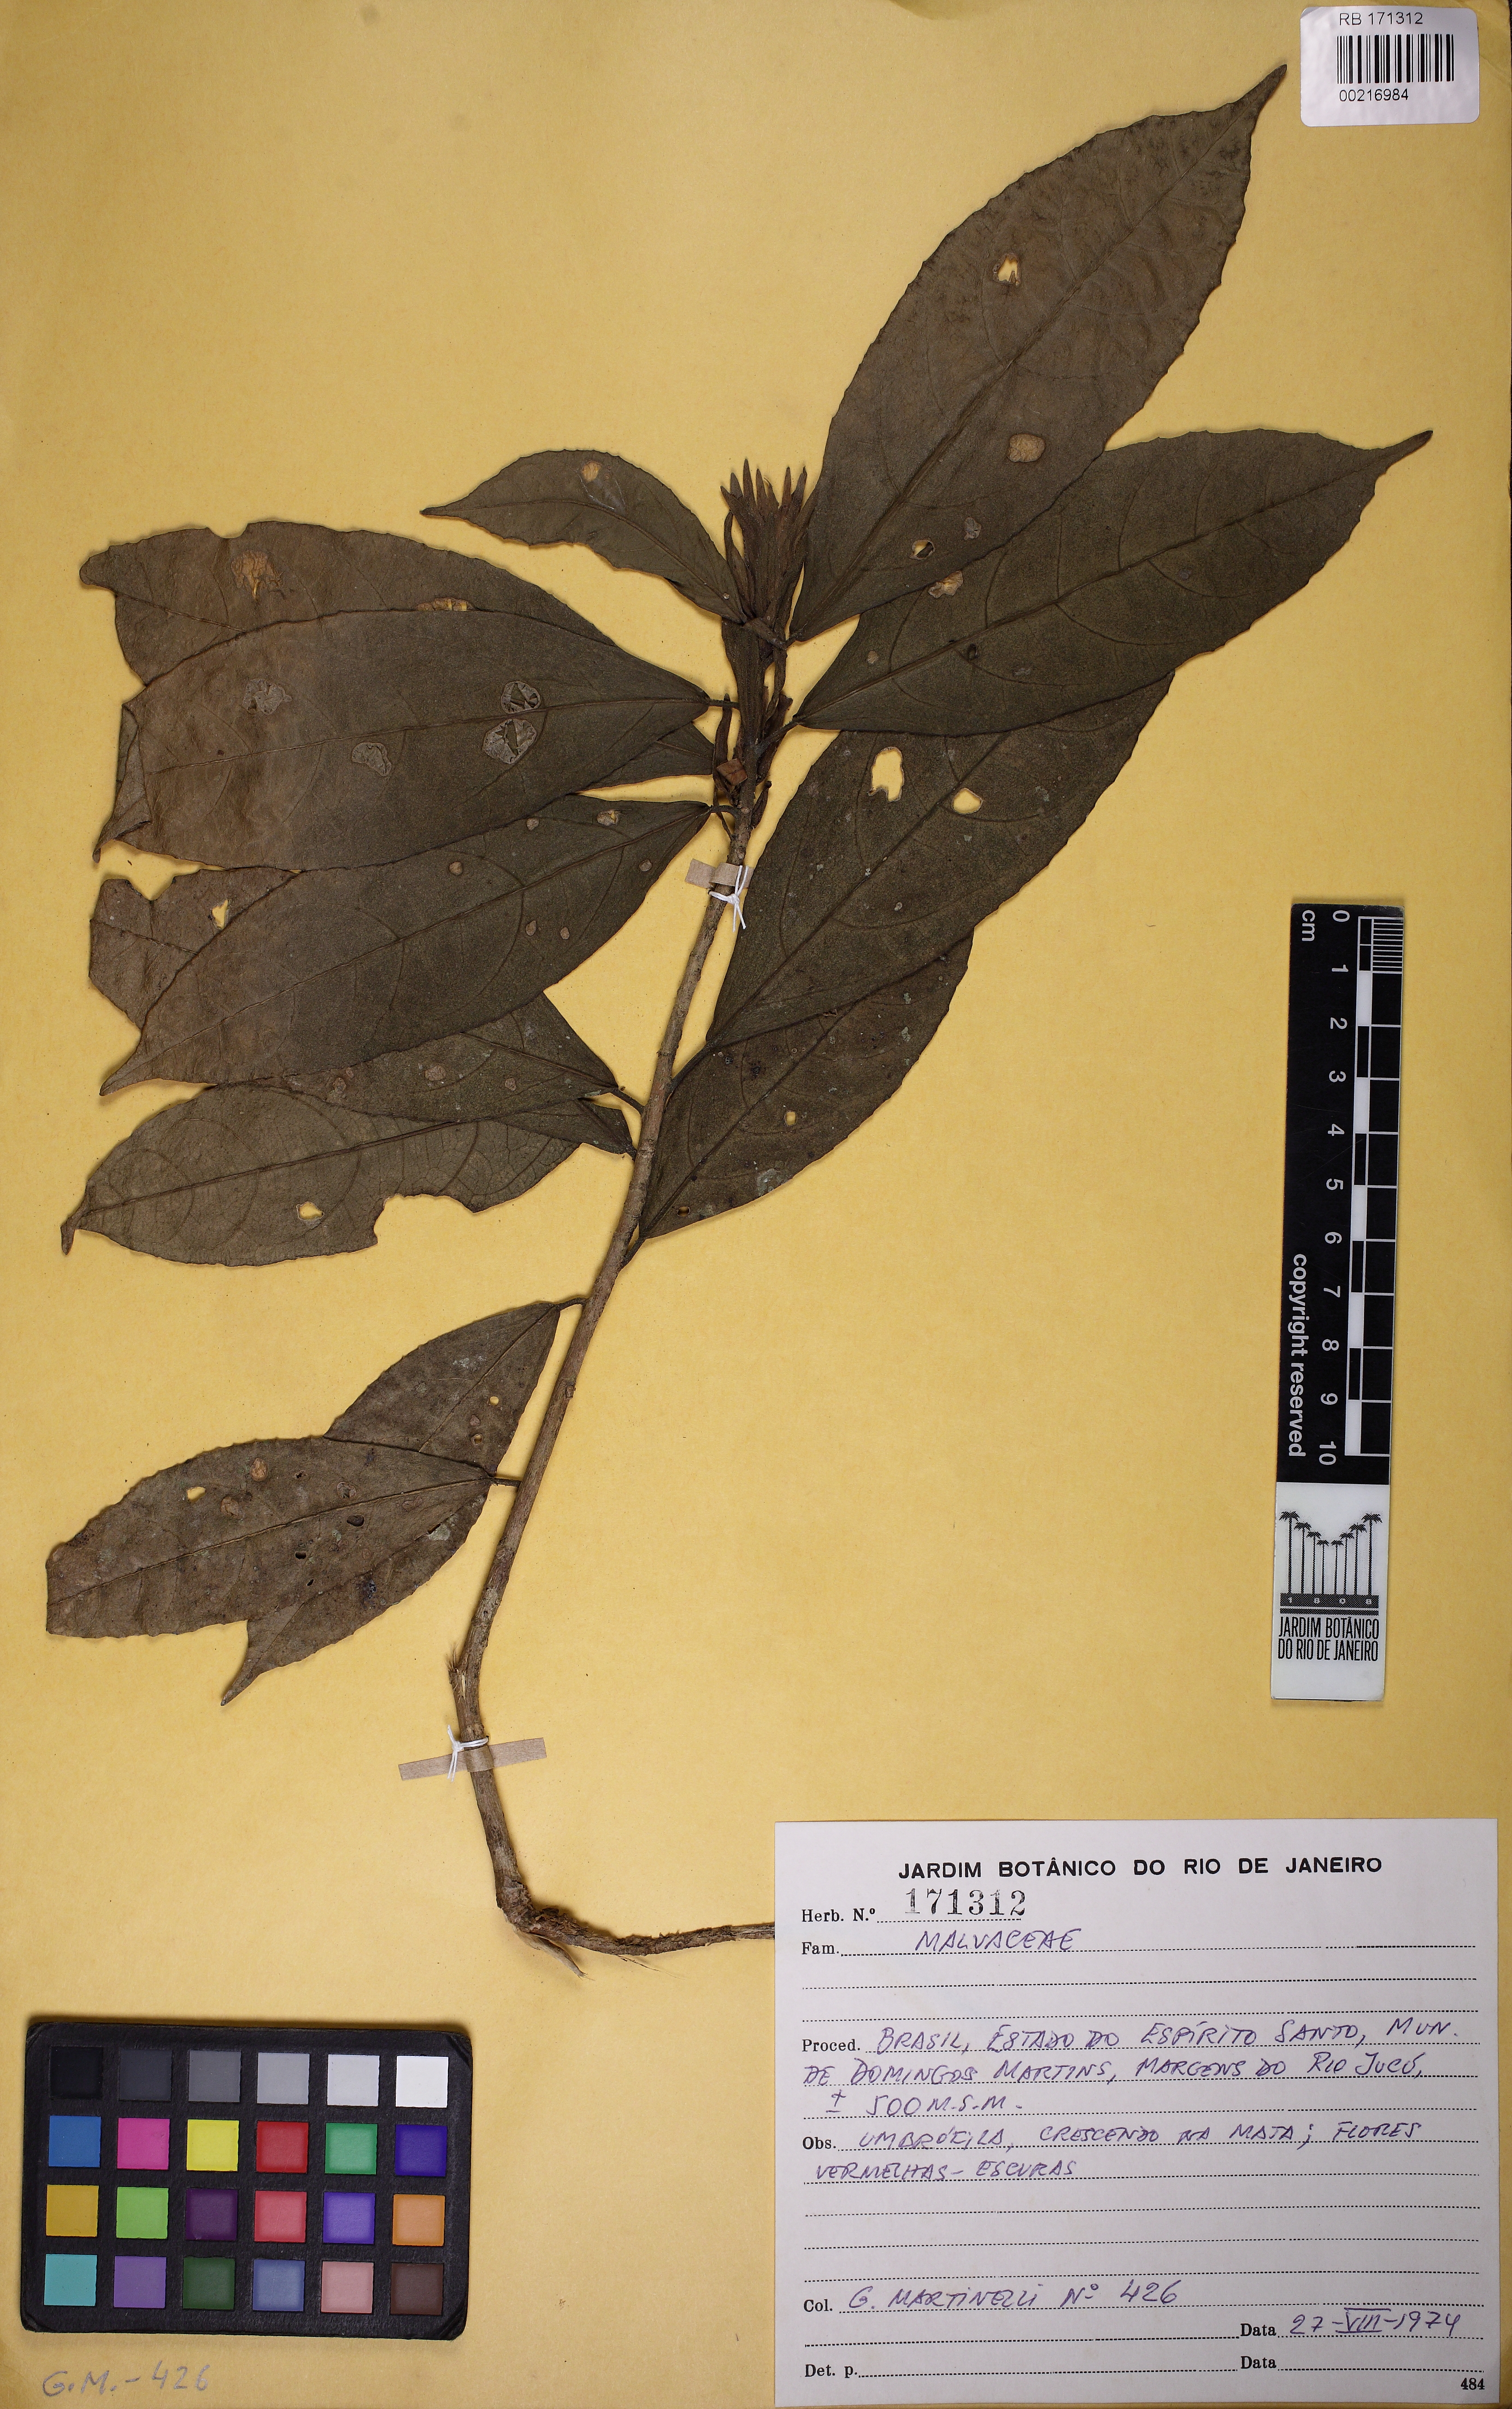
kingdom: Plantae
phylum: Tracheophyta
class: Magnoliopsida
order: Malvales
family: Malvaceae
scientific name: Malvaceae
